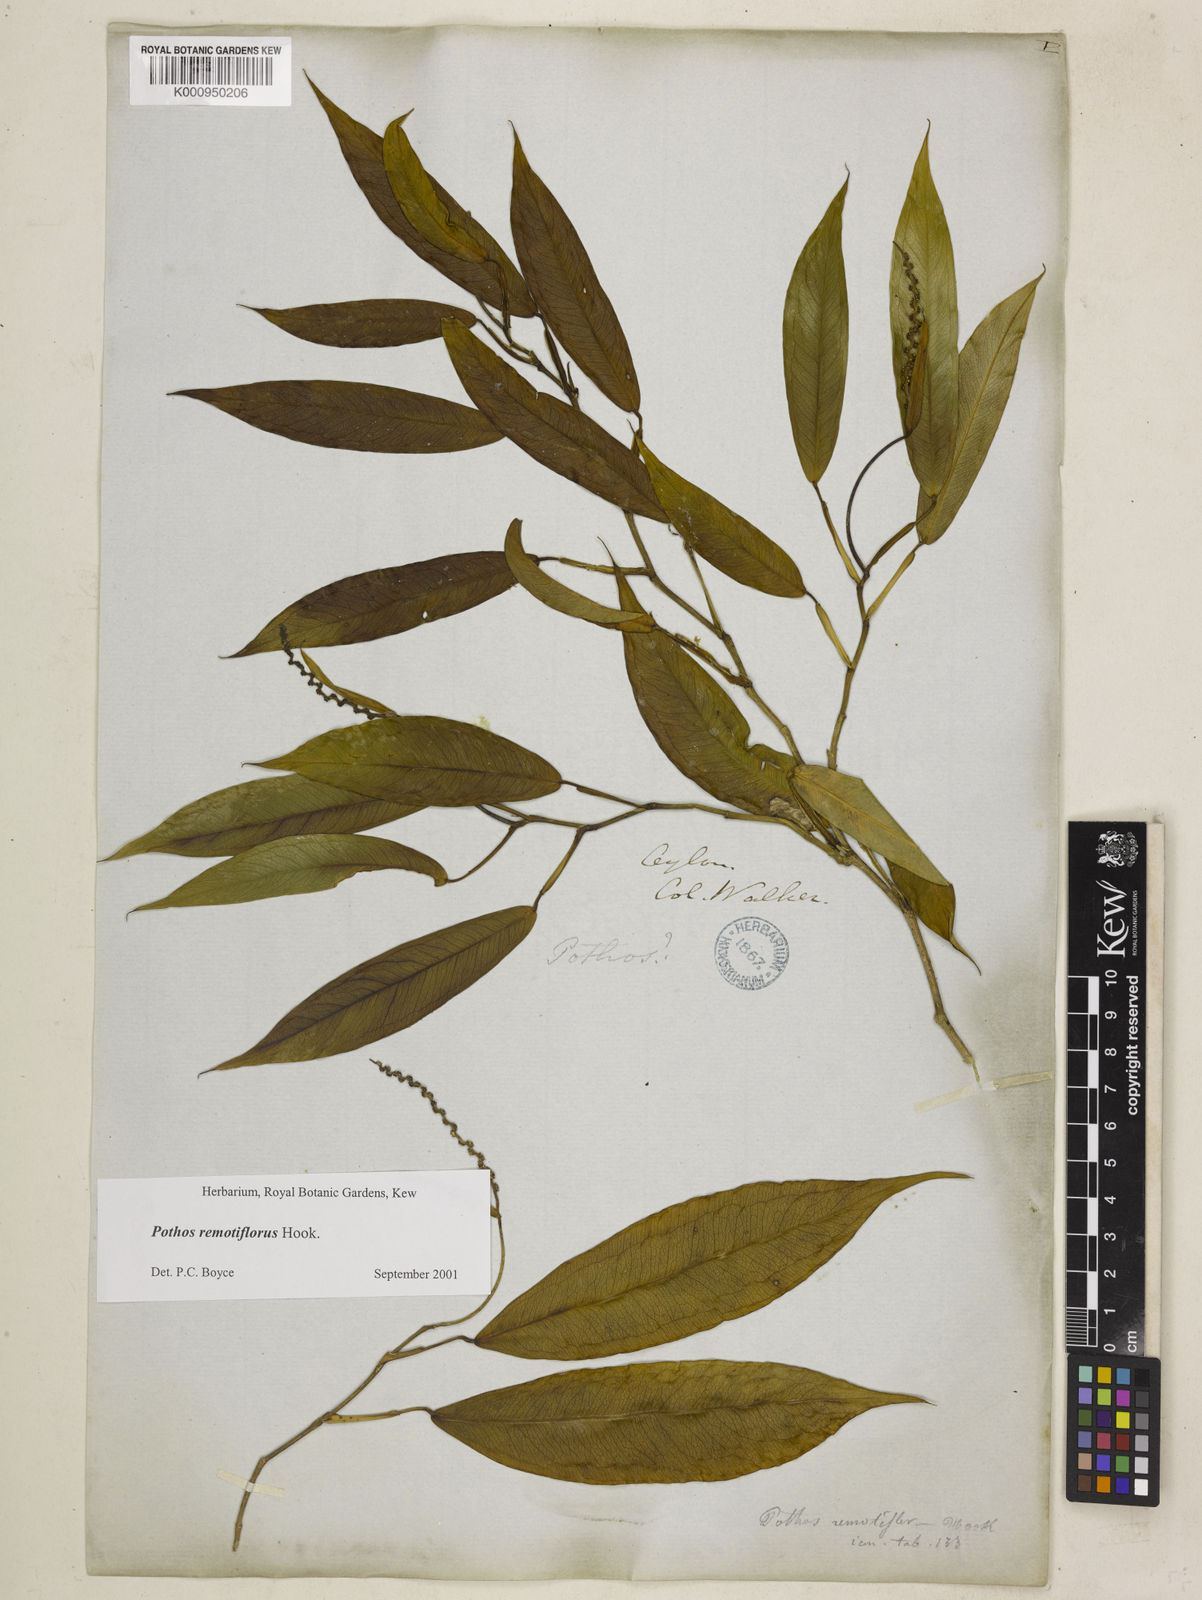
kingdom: Plantae
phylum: Tracheophyta
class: Liliopsida
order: Alismatales
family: Araceae
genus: Pothos
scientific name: Pothos remotiflorus
